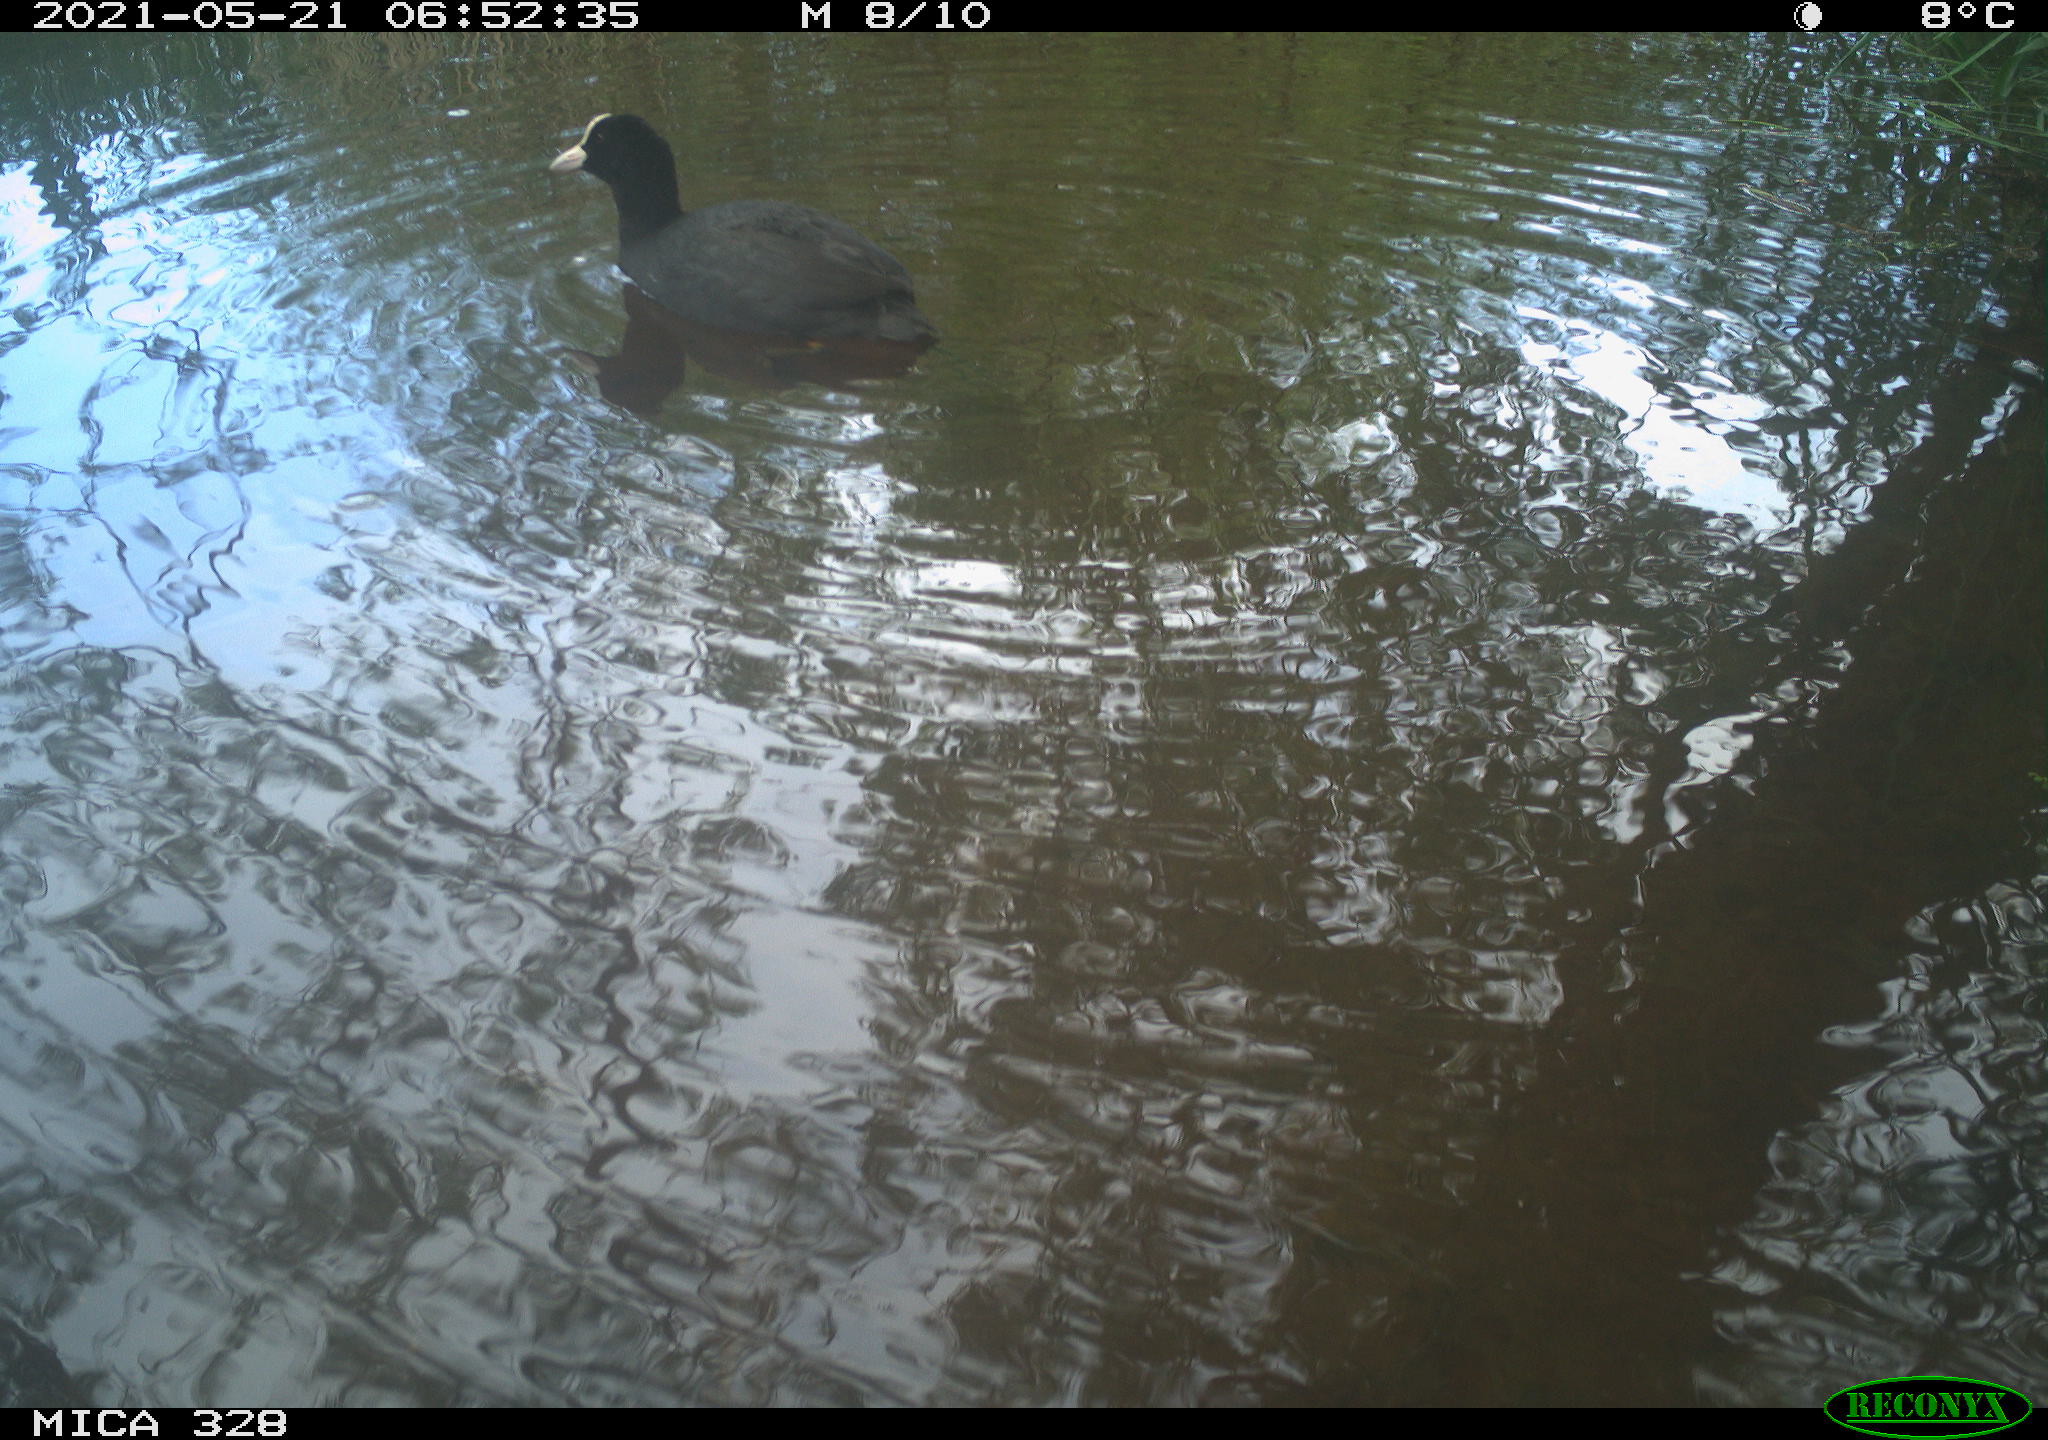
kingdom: Animalia
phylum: Chordata
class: Aves
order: Gruiformes
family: Rallidae
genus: Fulica
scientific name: Fulica atra
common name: Eurasian coot
